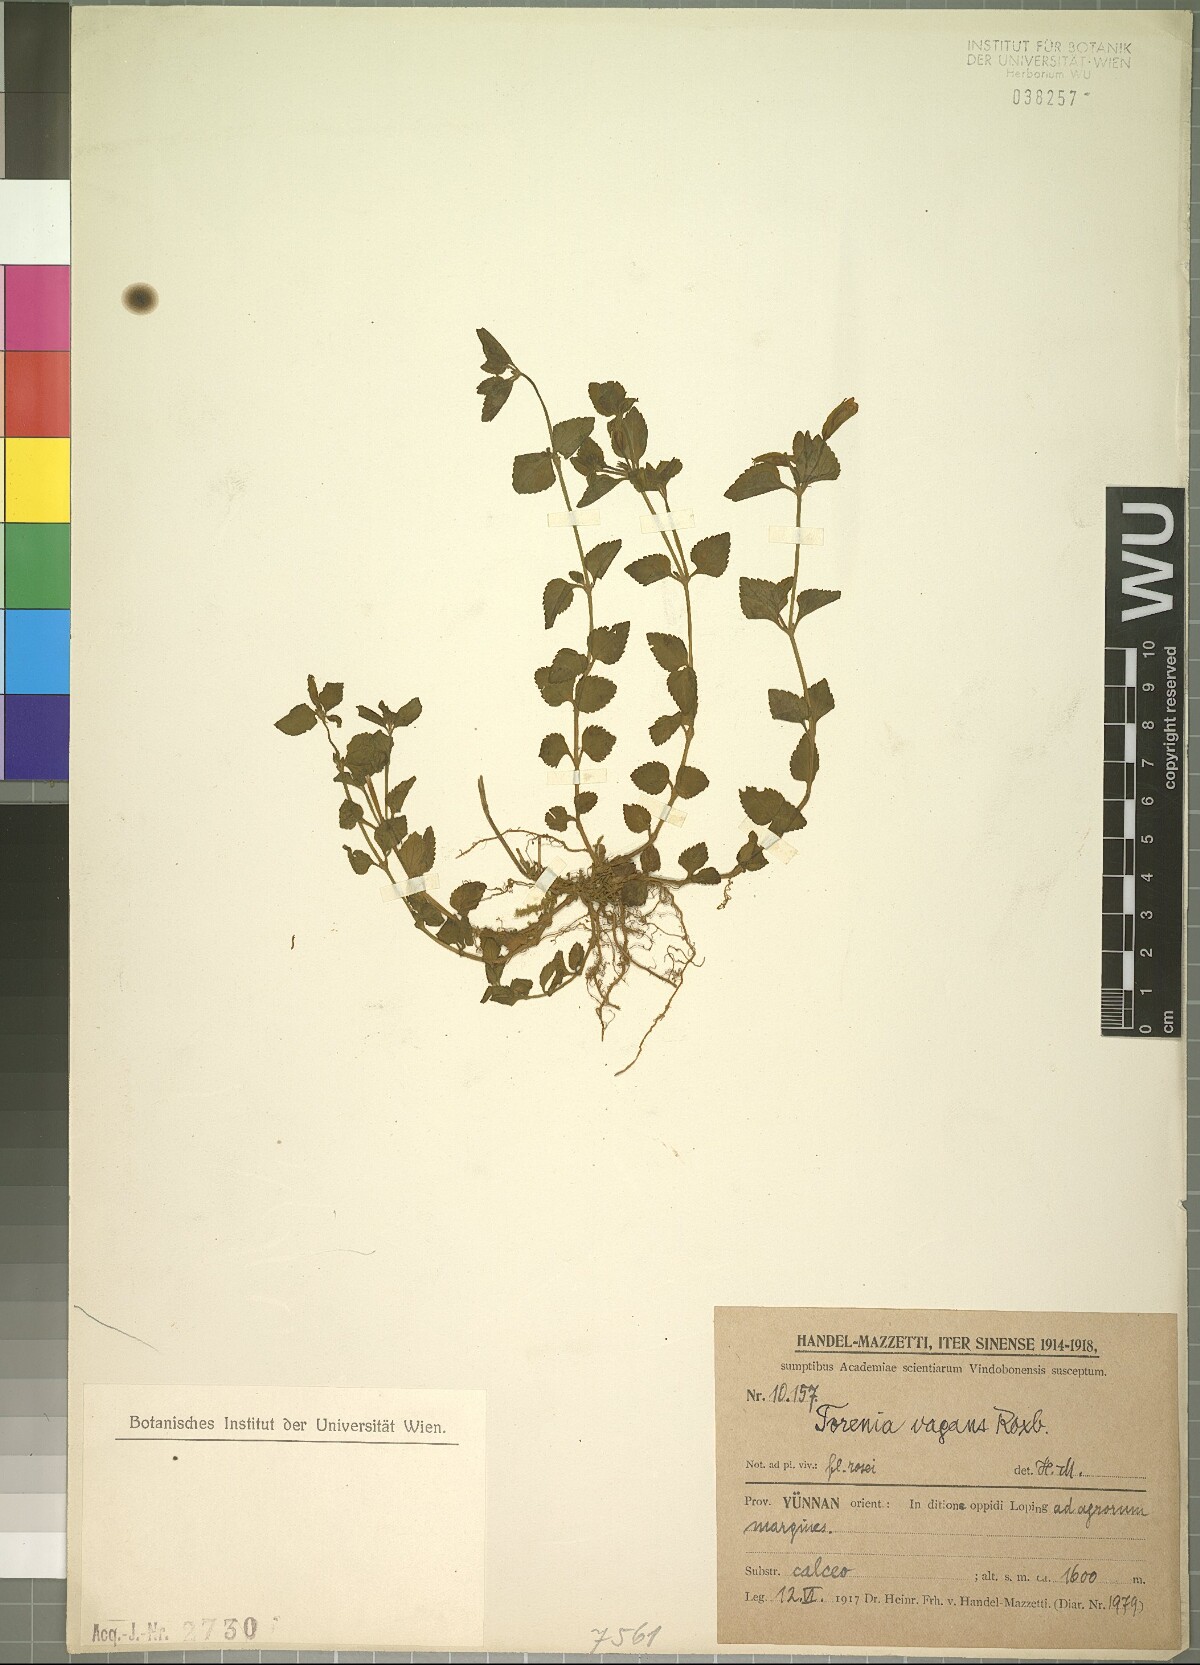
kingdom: Plantae
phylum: Tracheophyta
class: Magnoliopsida
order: Lamiales
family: Linderniaceae
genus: Torenia
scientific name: Torenia diffusa
